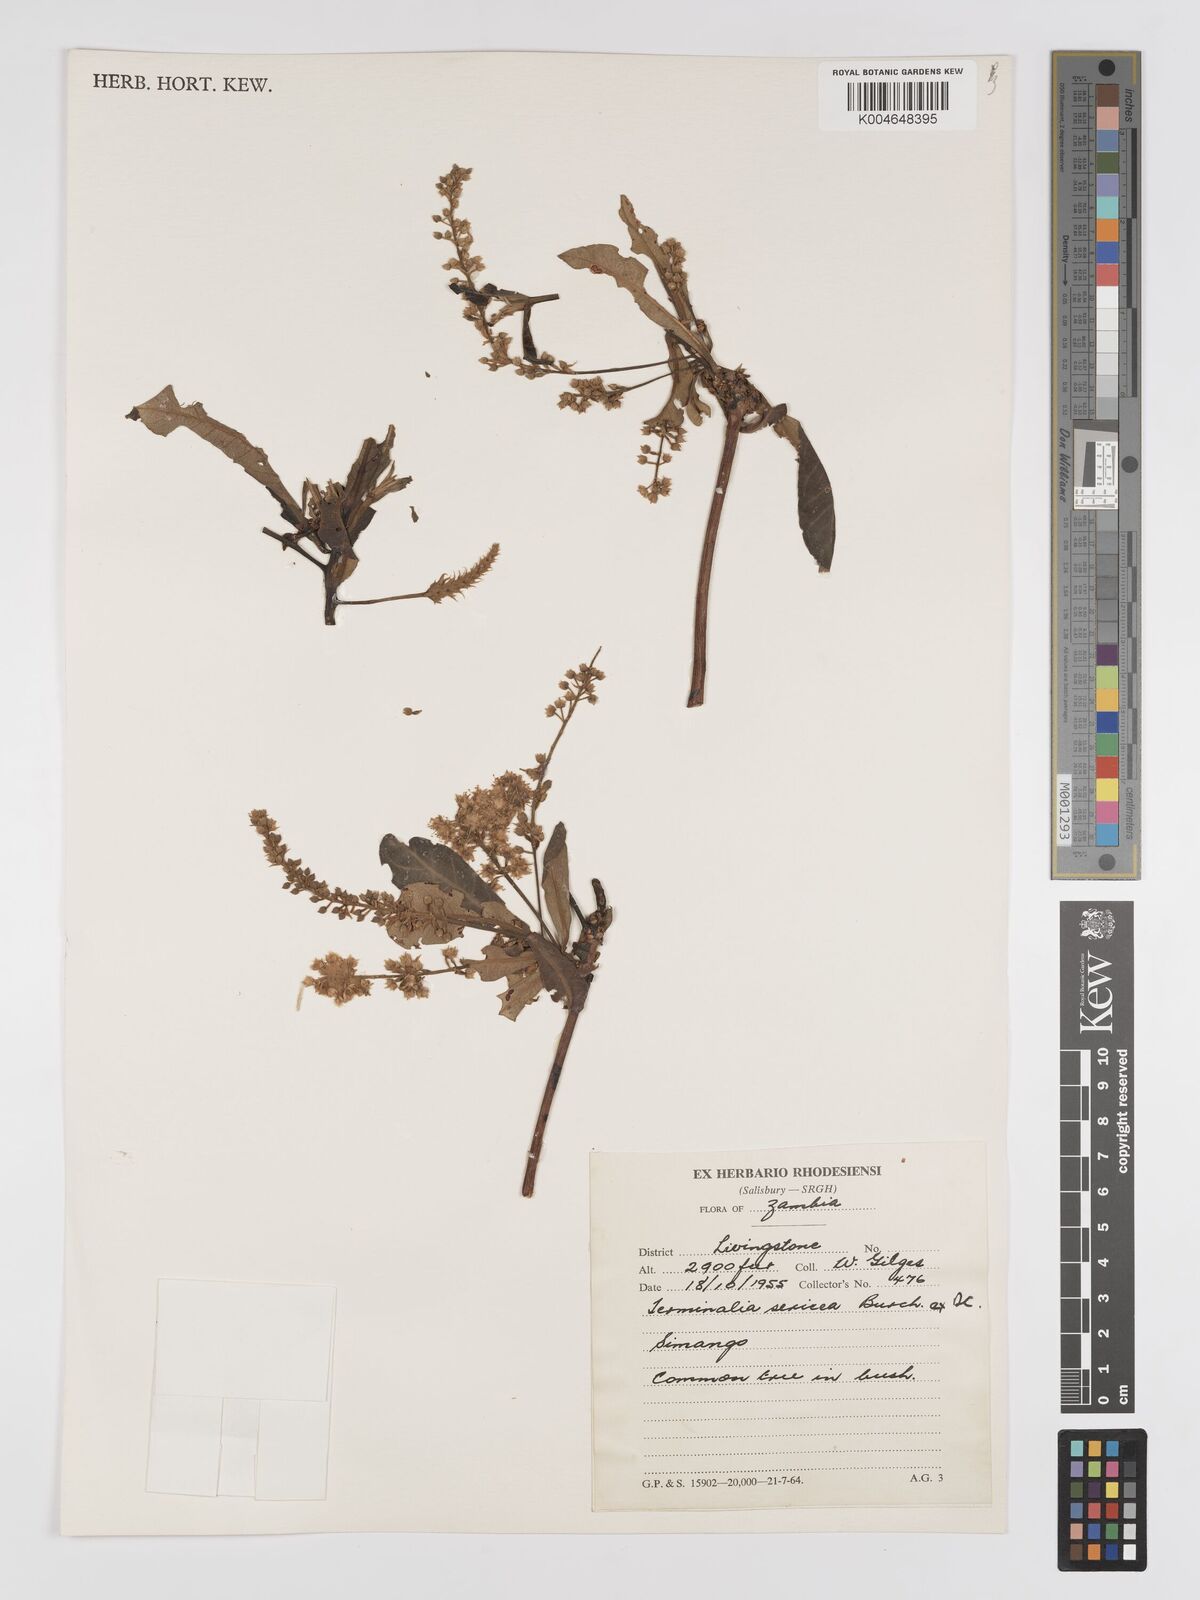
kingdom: Plantae
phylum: Tracheophyta
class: Magnoliopsida
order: Myrtales
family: Combretaceae
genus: Terminalia
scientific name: Terminalia
